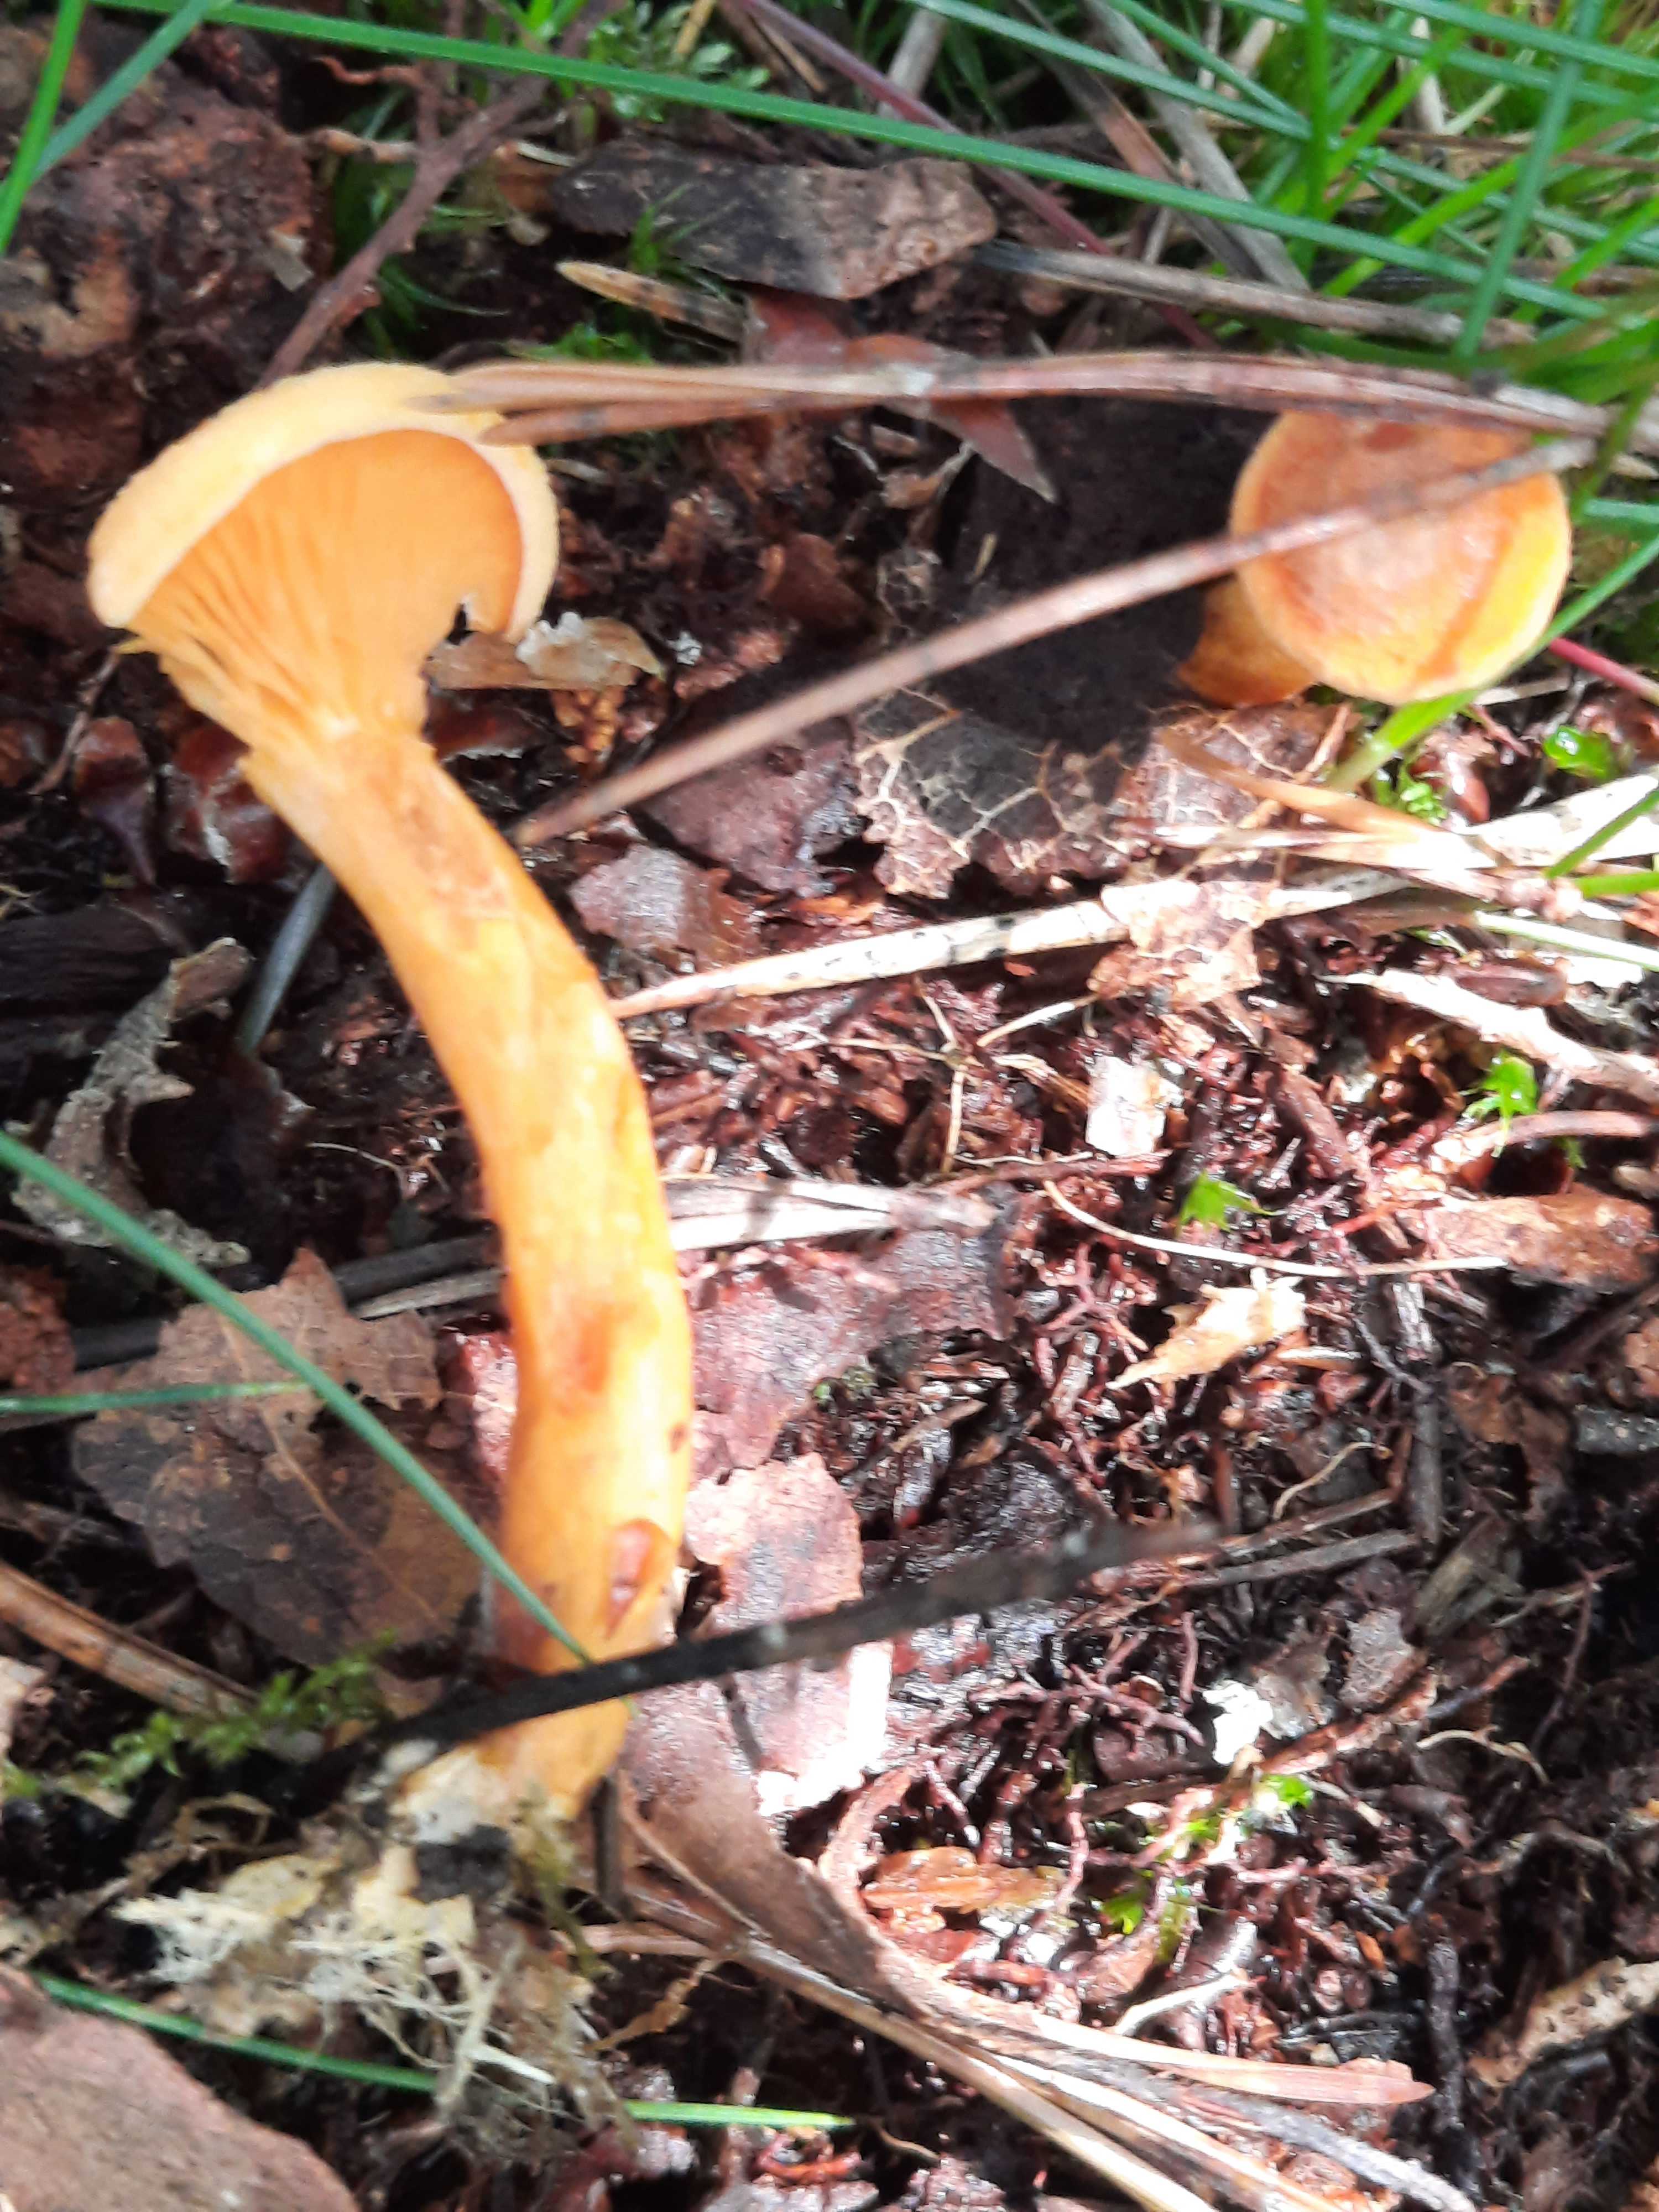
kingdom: Fungi
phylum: Basidiomycota
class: Agaricomycetes
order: Boletales
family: Hygrophoropsidaceae
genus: Hygrophoropsis
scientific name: Hygrophoropsis aurantiaca
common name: almindelig orangekantarel
